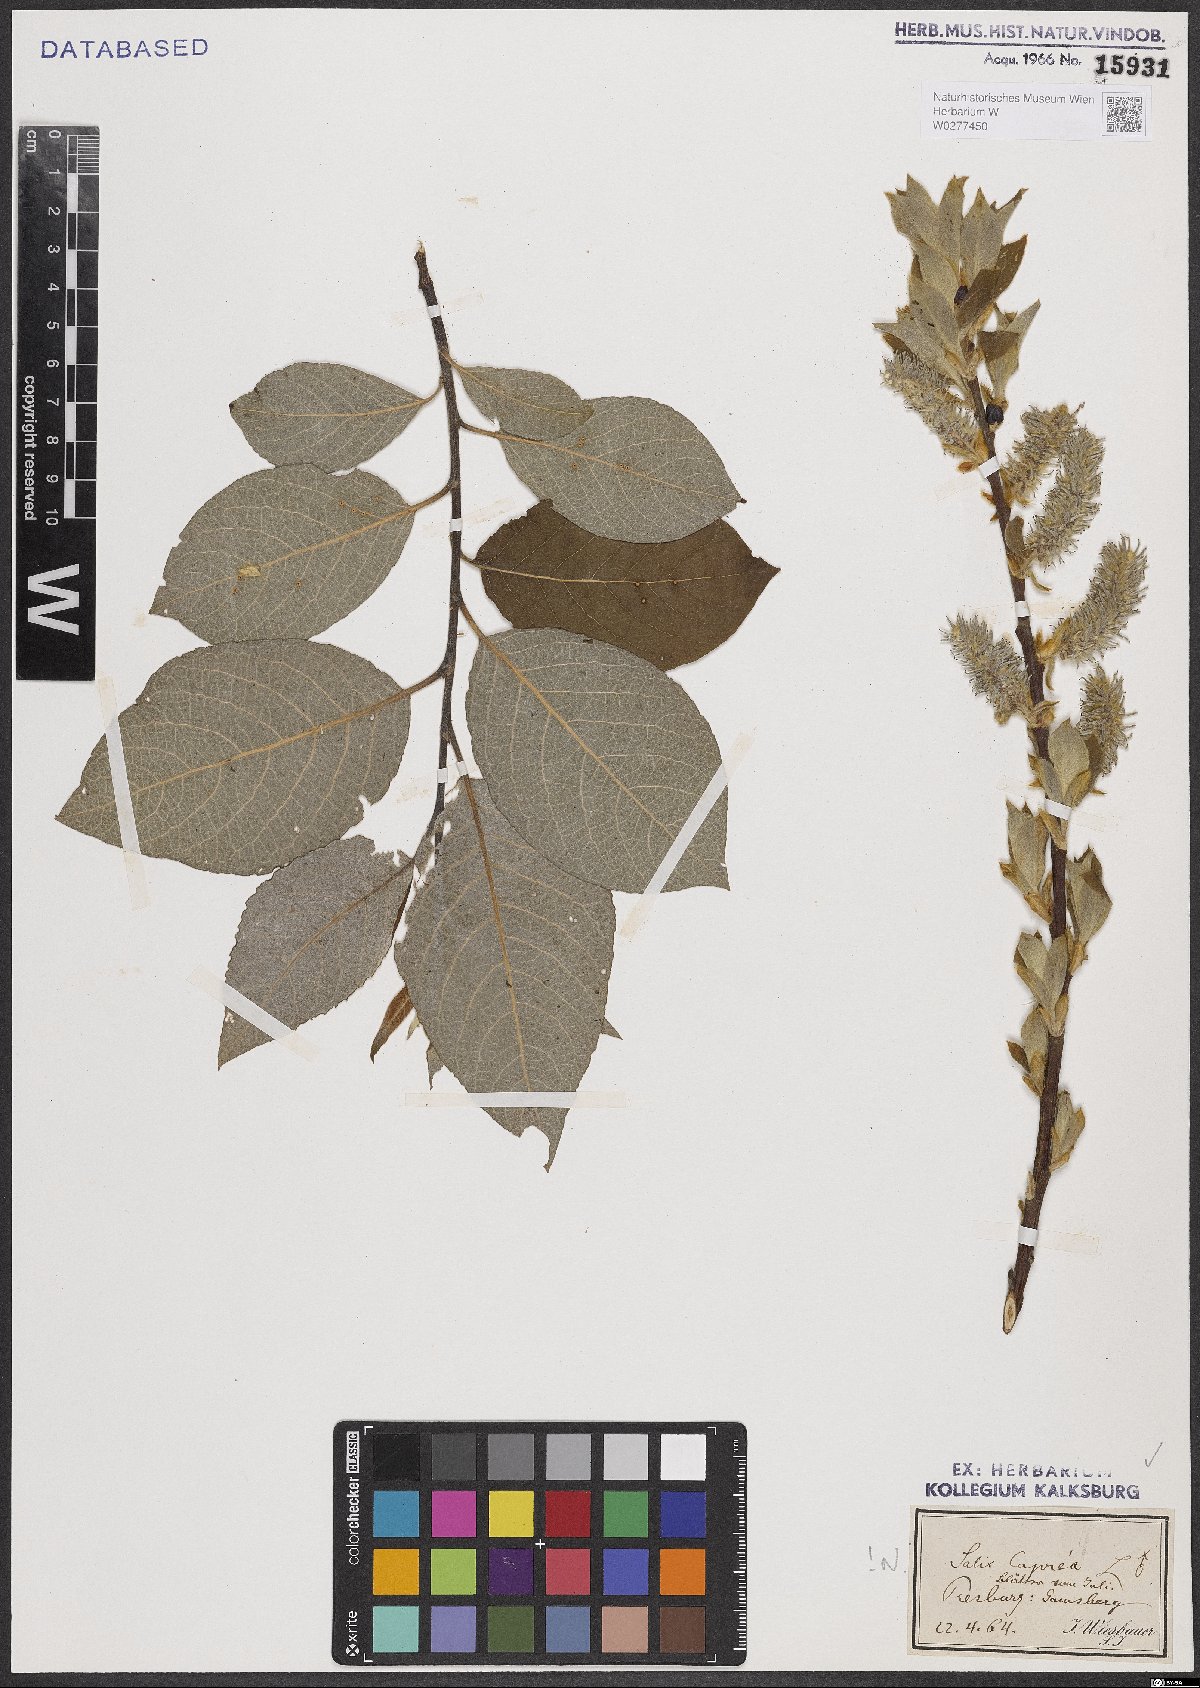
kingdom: Plantae
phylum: Tracheophyta
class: Magnoliopsida
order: Malpighiales
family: Salicaceae
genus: Salix
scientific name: Salix caprea
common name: Goat willow
